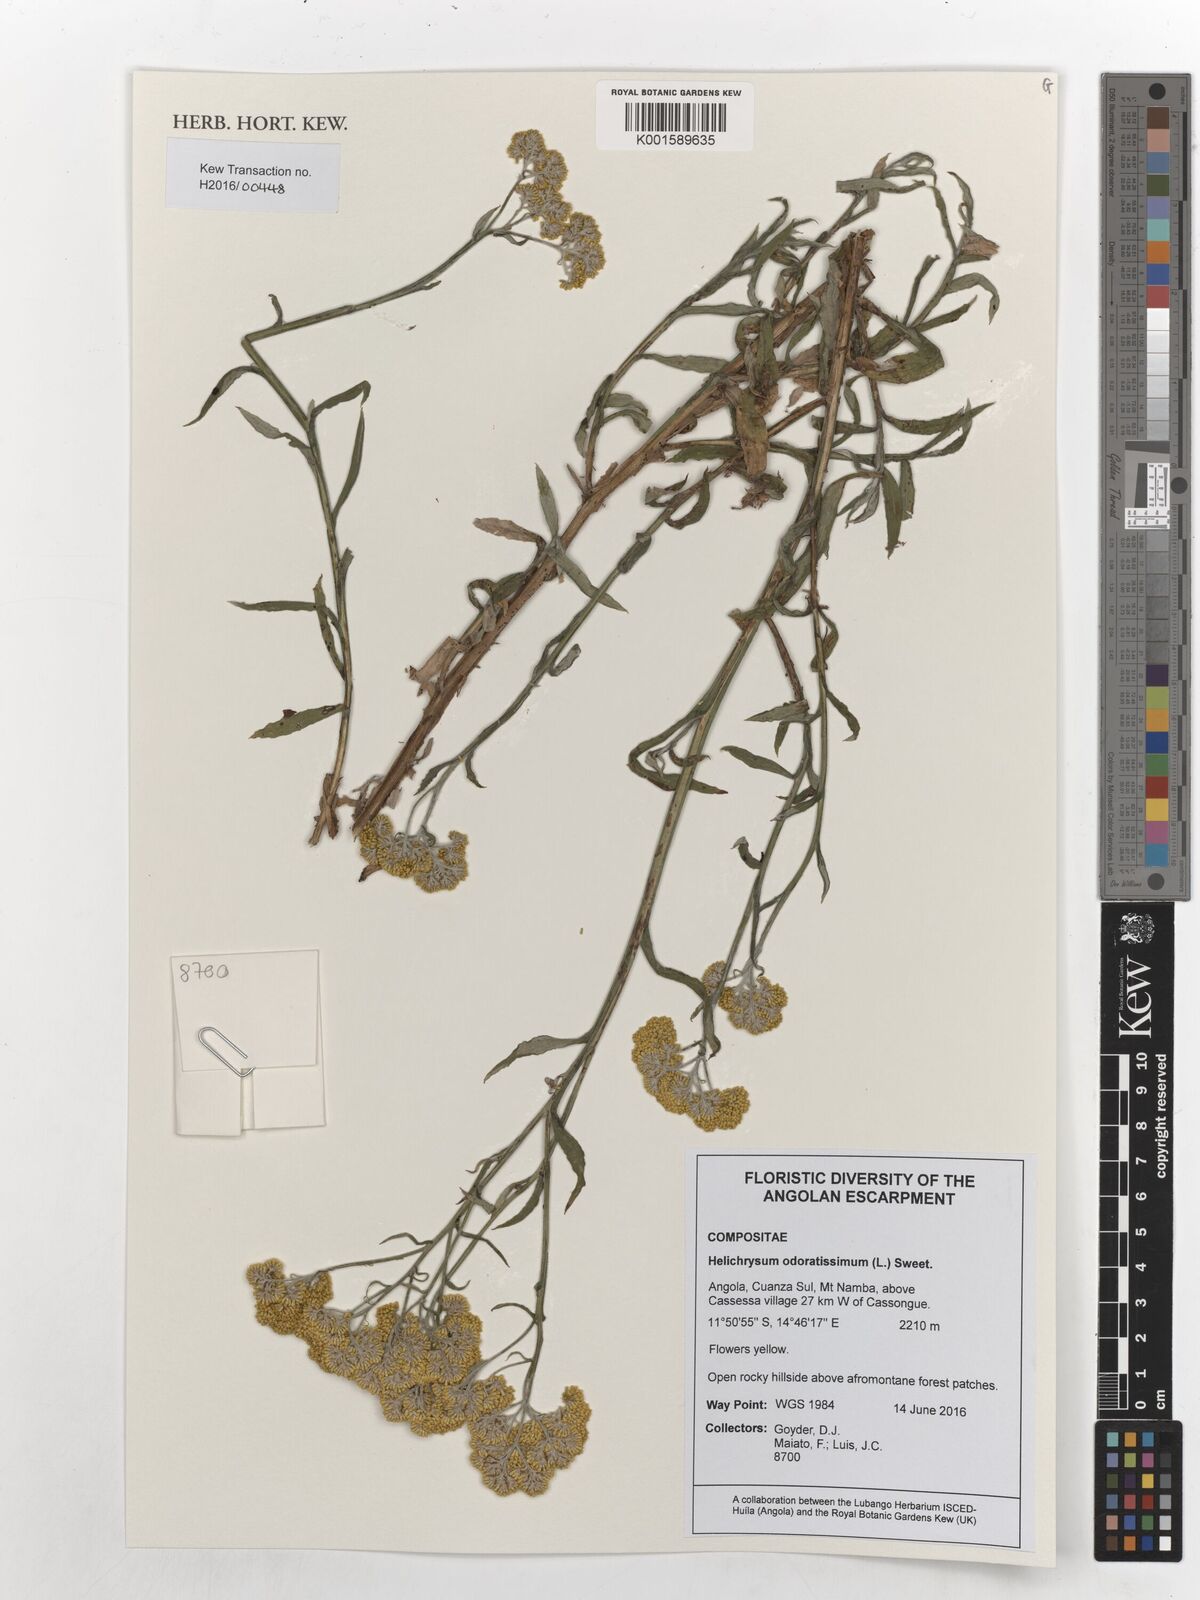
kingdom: Plantae
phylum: Tracheophyta
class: Magnoliopsida
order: Asterales
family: Asteraceae
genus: Helichrysum
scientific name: Helichrysum odoratissimum
